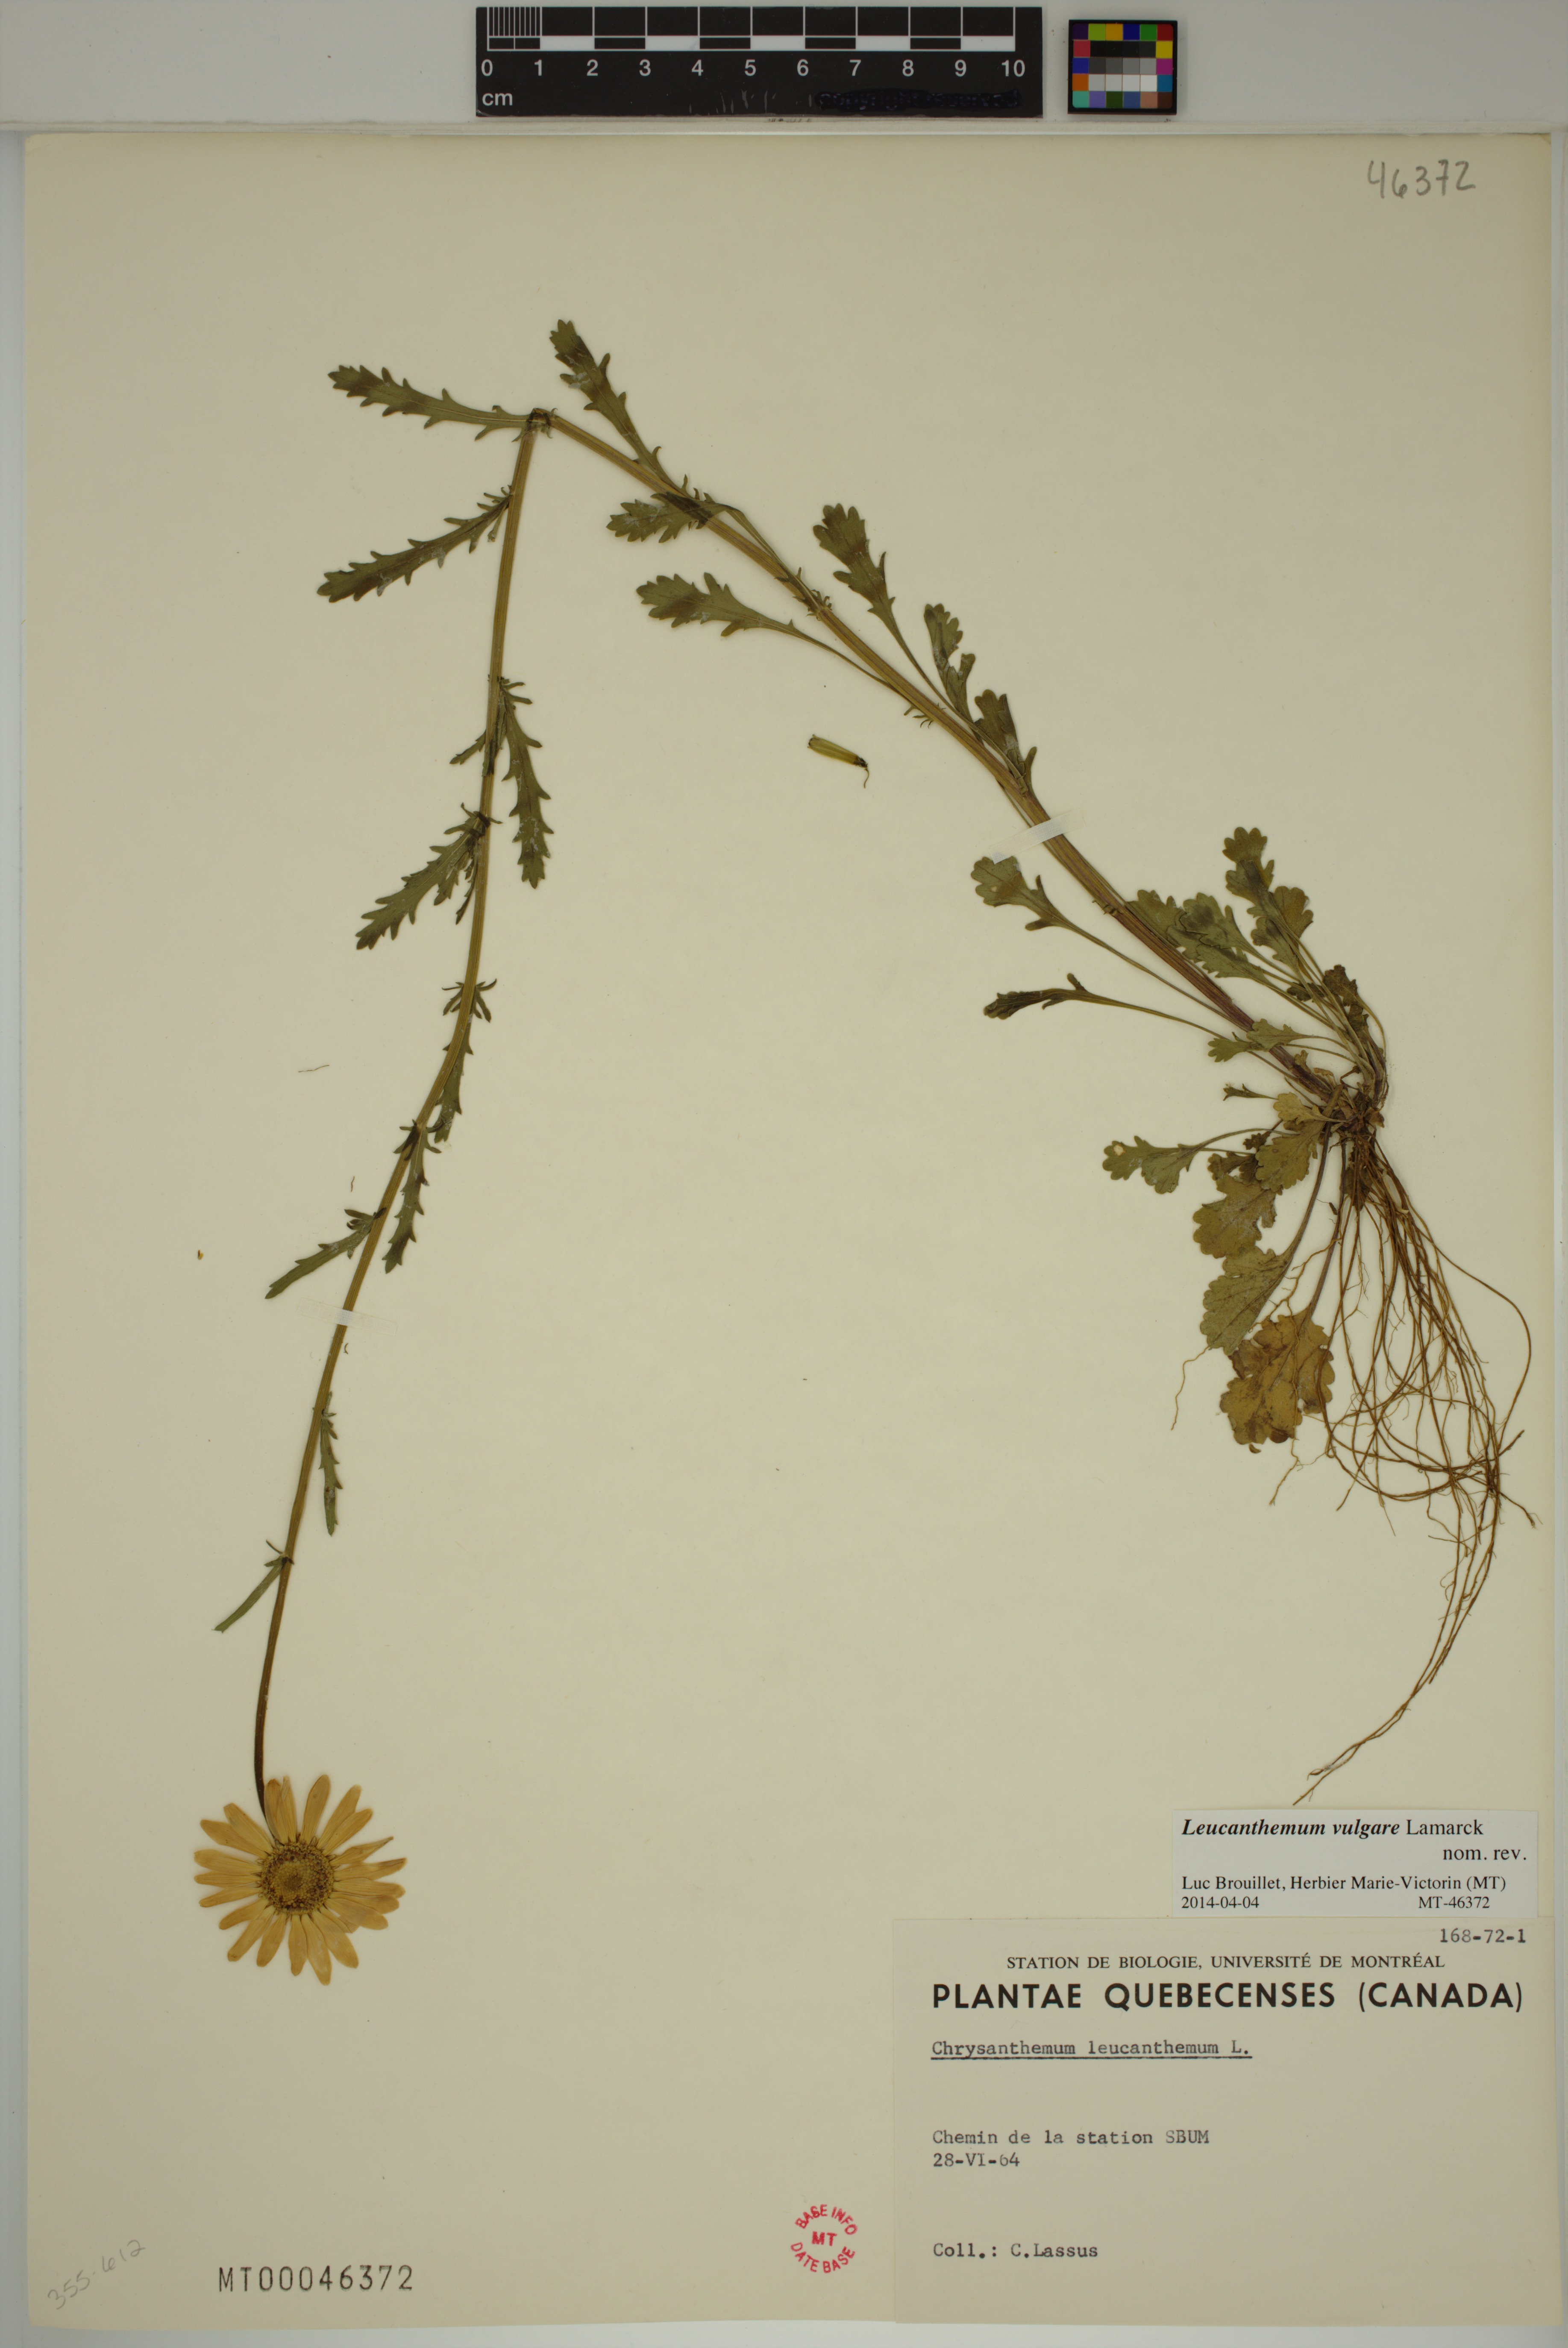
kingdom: Plantae
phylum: Tracheophyta
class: Magnoliopsida
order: Asterales
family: Asteraceae
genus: Leucanthemum
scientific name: Leucanthemum vulgare
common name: Oxeye daisy
